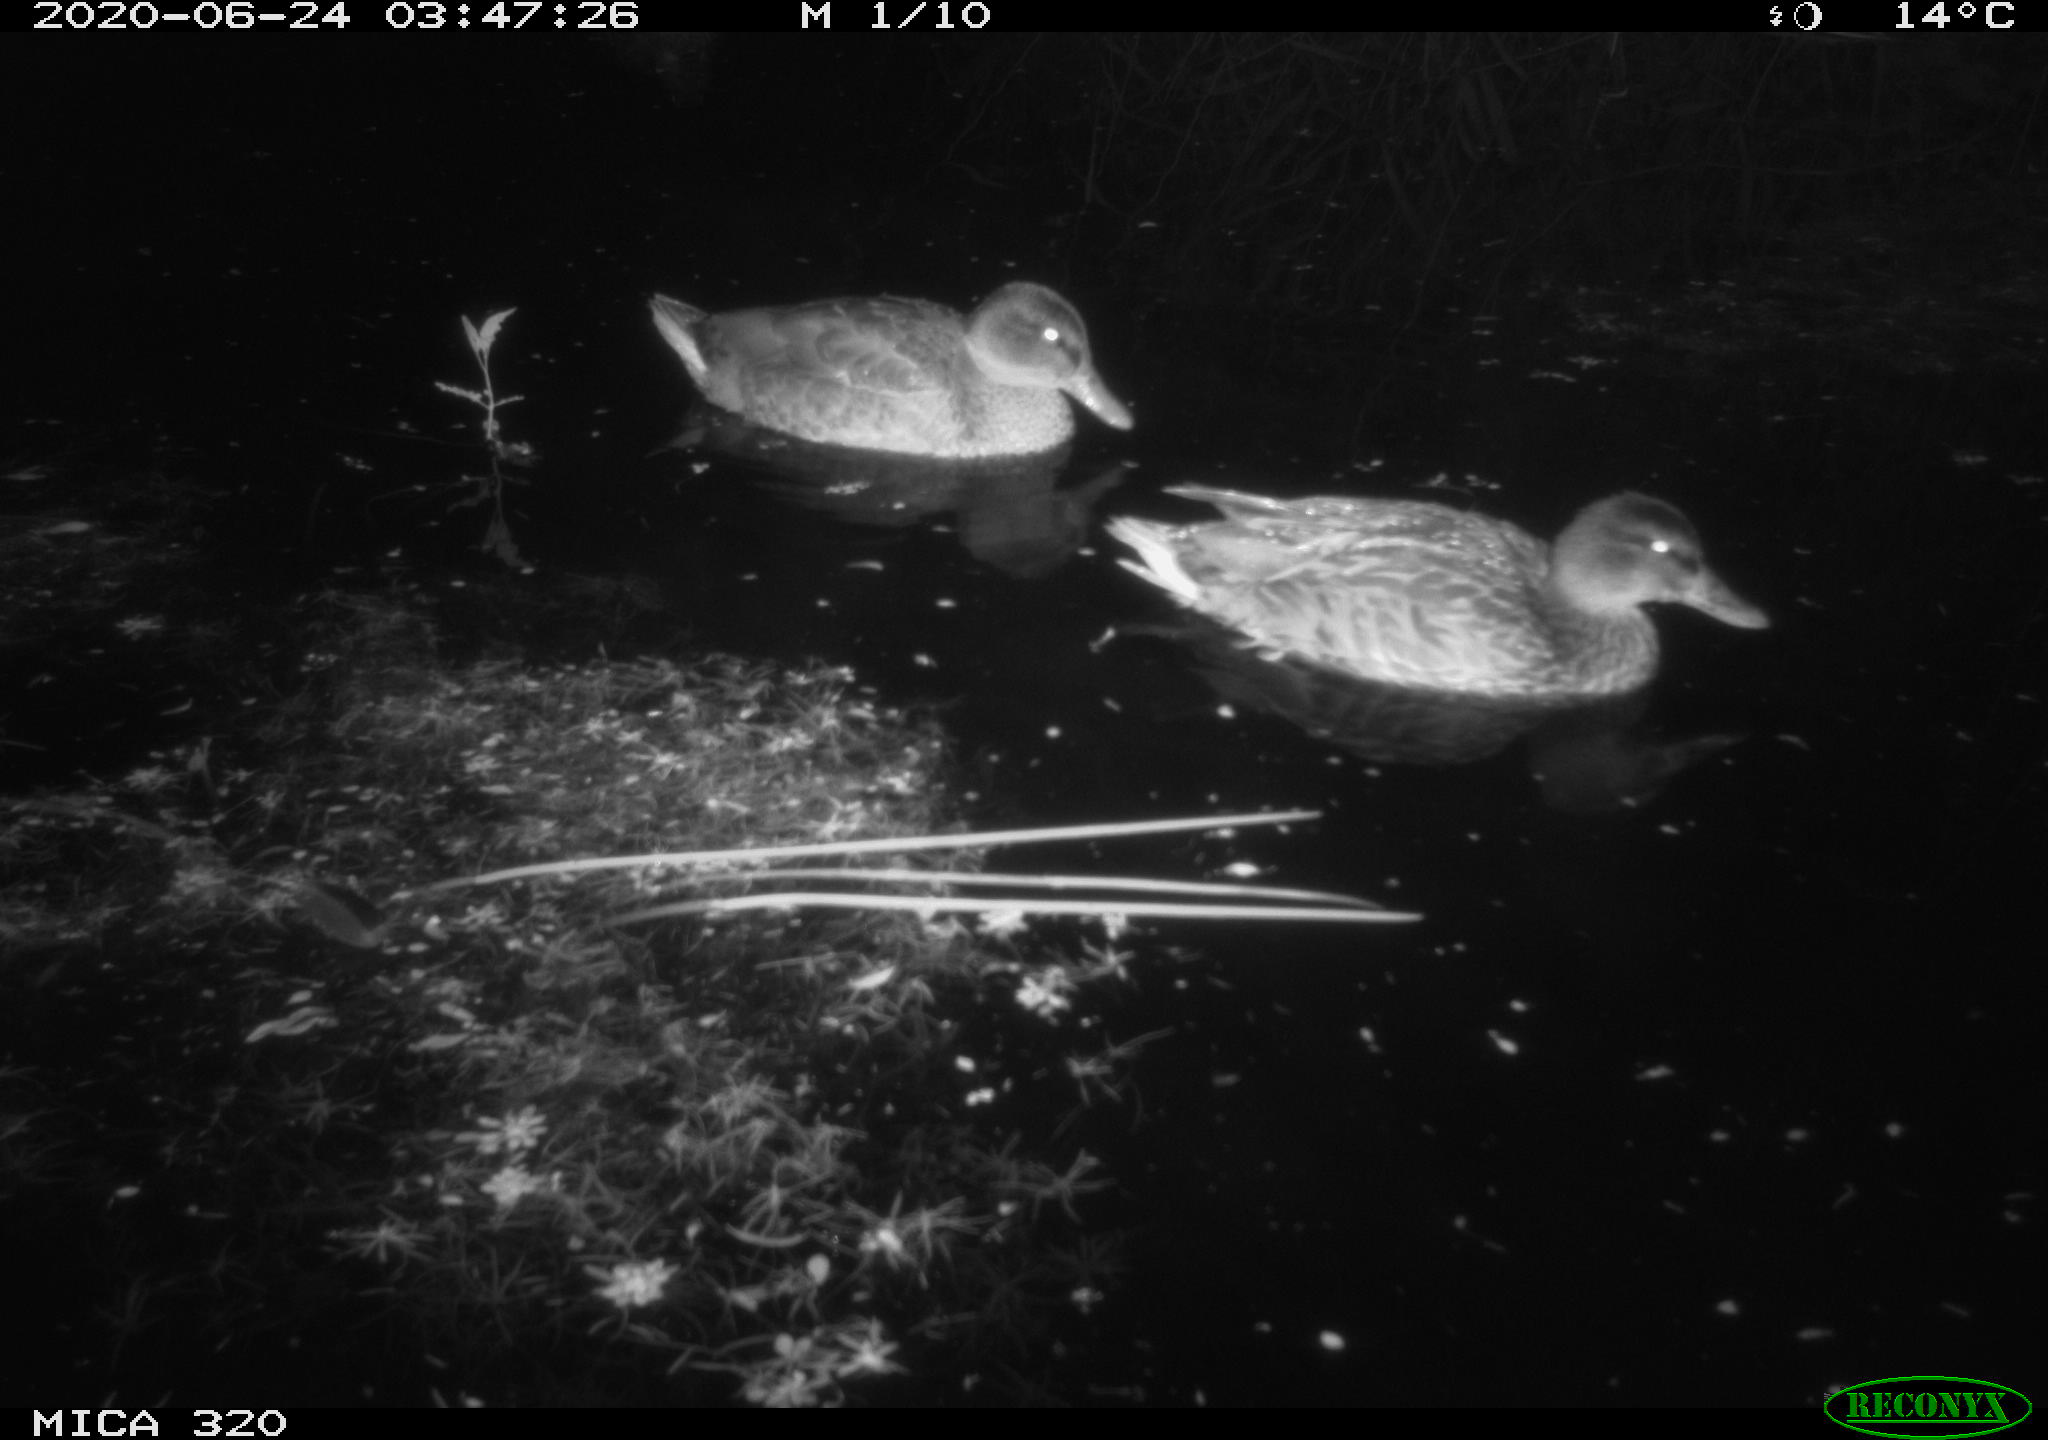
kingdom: Animalia
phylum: Chordata
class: Aves
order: Anseriformes
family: Anatidae
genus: Anas
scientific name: Anas platyrhynchos
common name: Mallard
